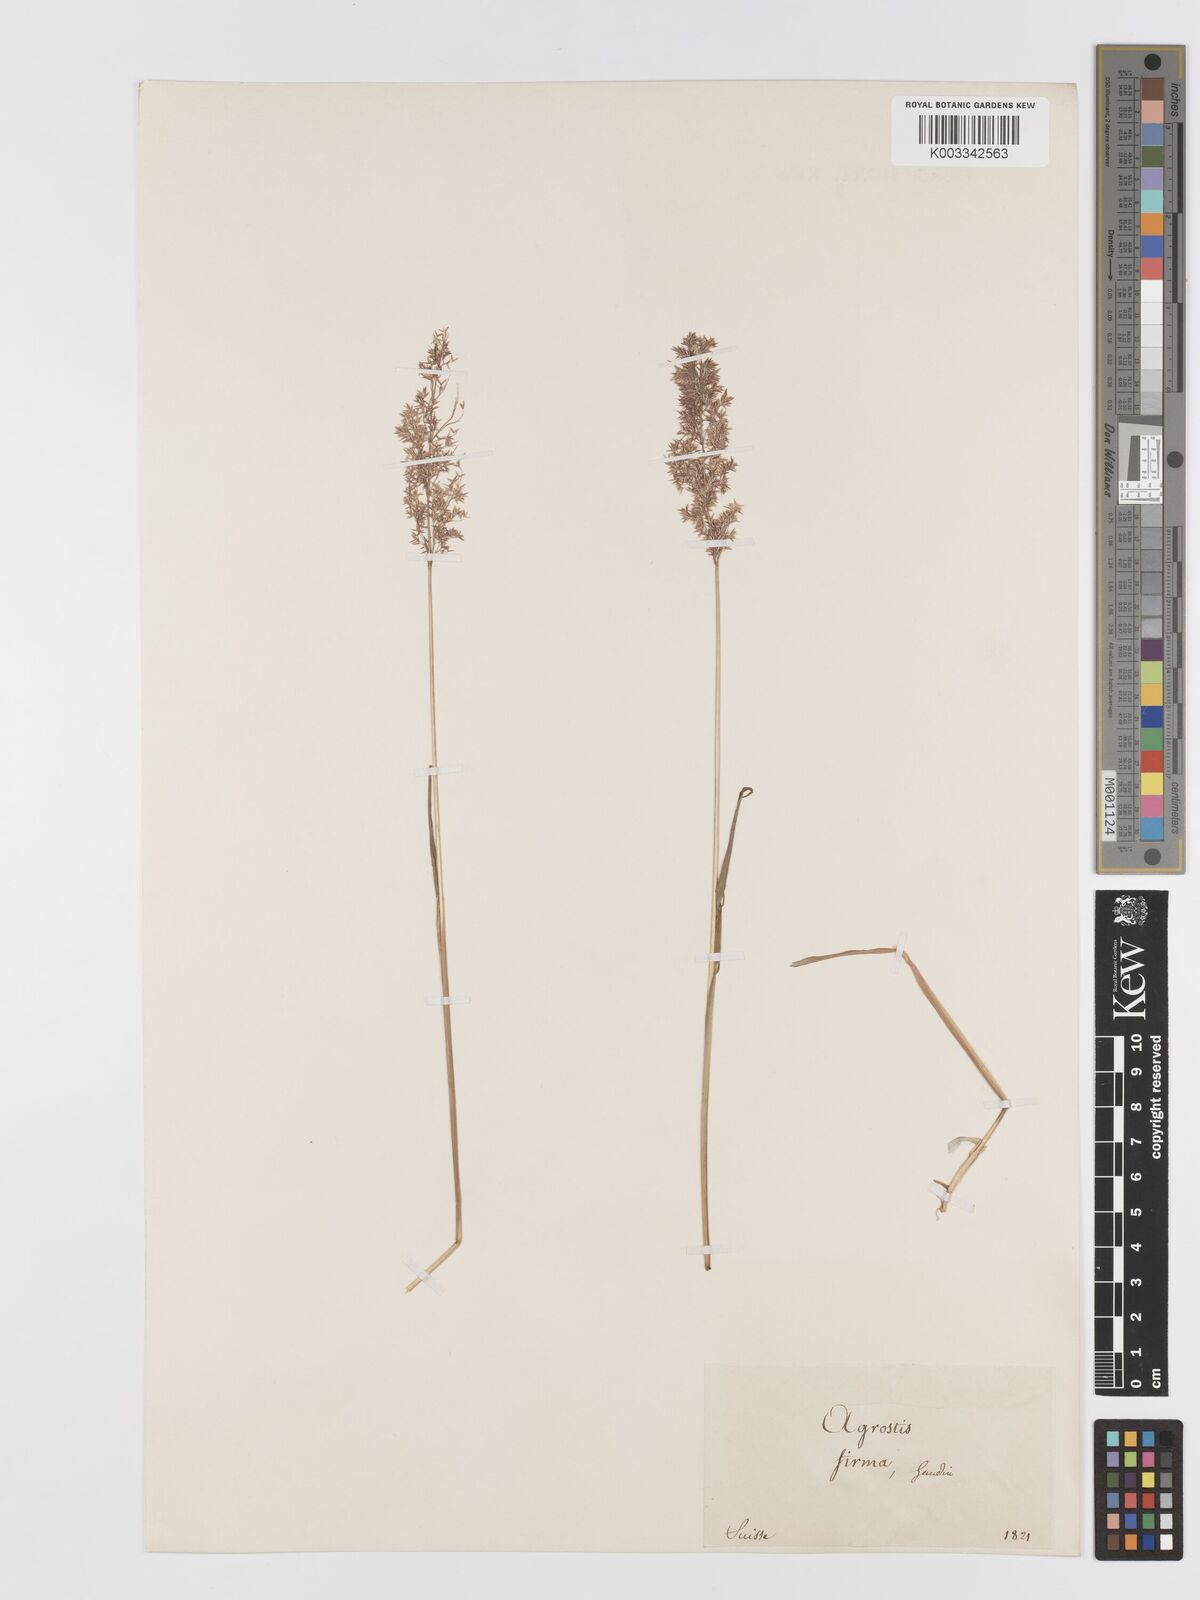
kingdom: Plantae
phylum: Tracheophyta
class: Liliopsida
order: Poales
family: Poaceae
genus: Agrostis
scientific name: Agrostis
